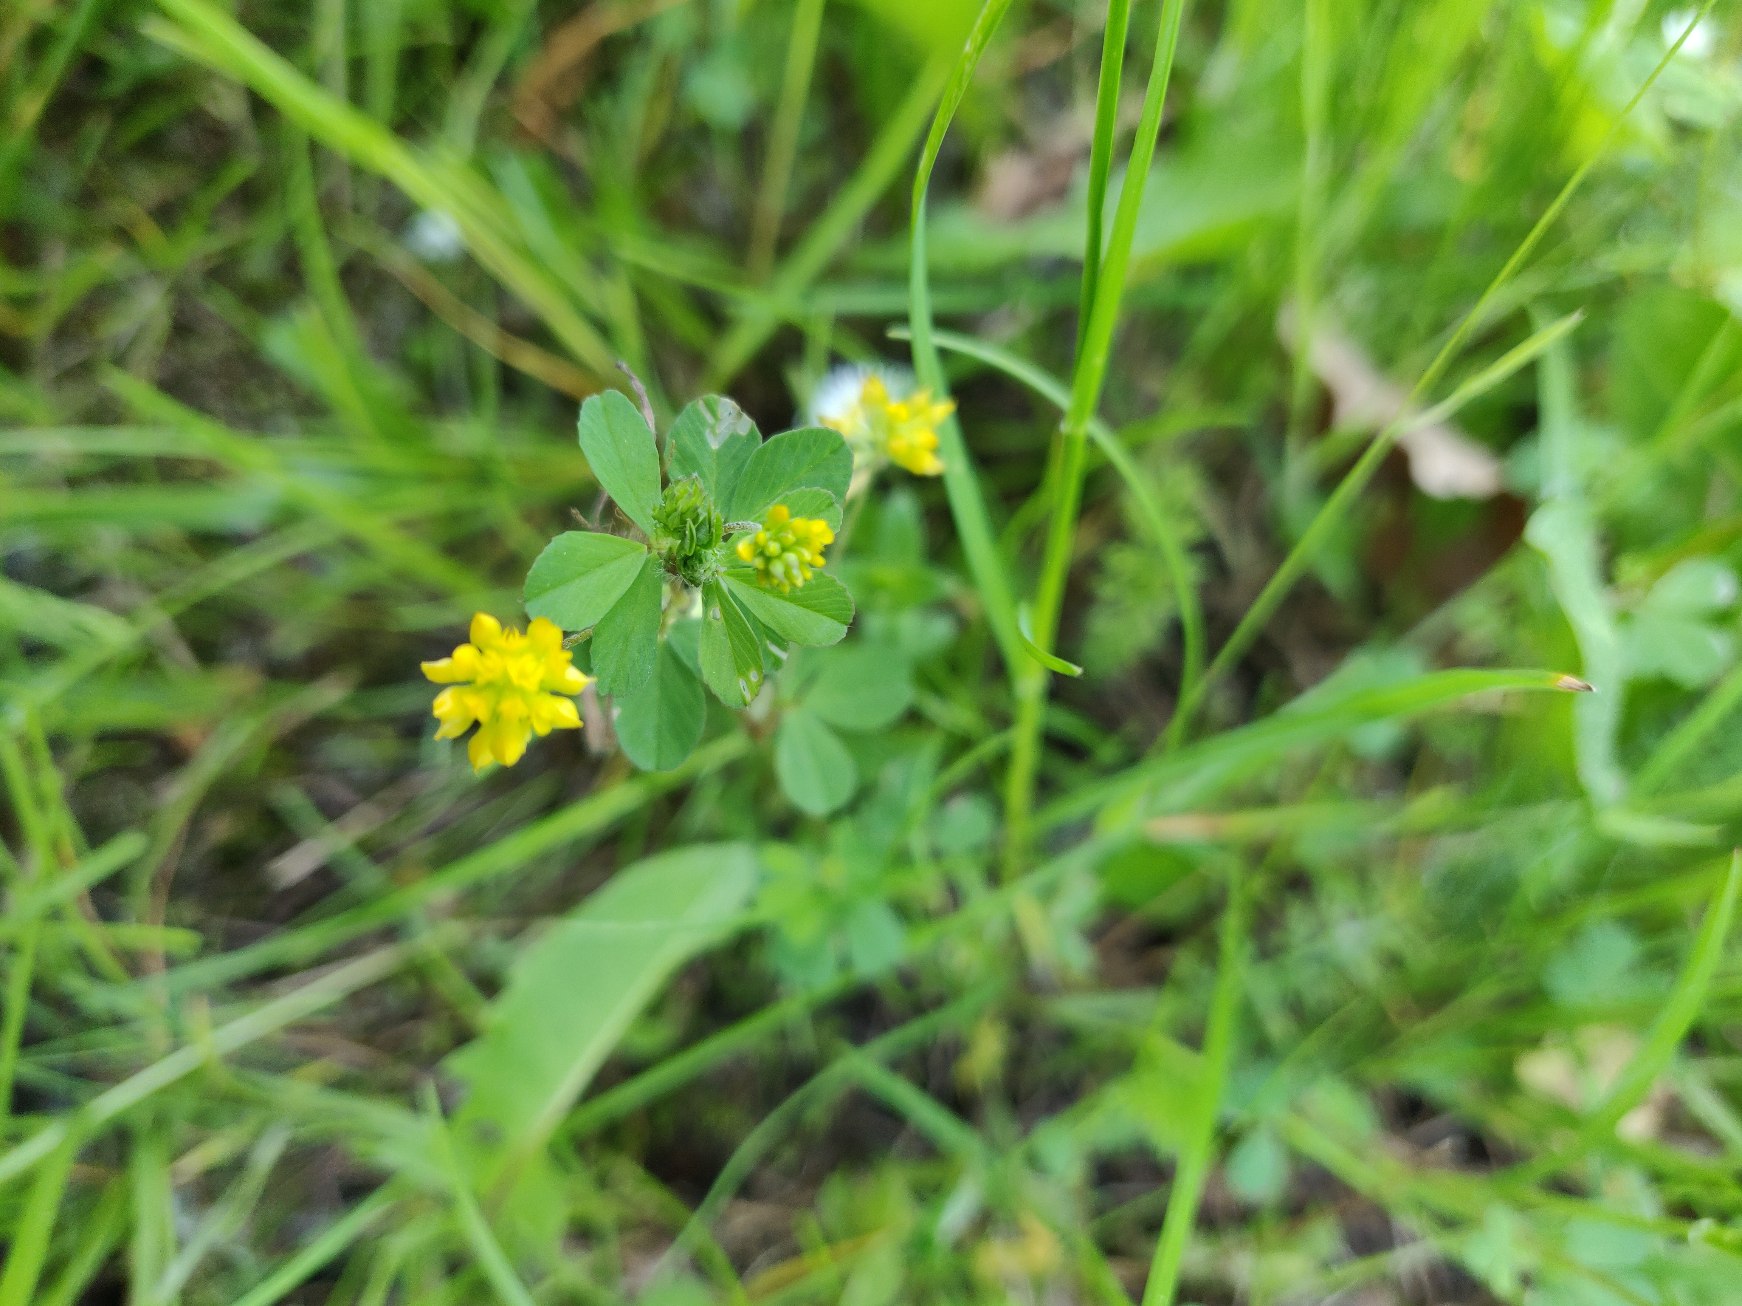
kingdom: Plantae
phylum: Tracheophyta
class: Magnoliopsida
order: Fabales
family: Fabaceae
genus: Trifolium
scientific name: Trifolium dubium
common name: Fin kløver
